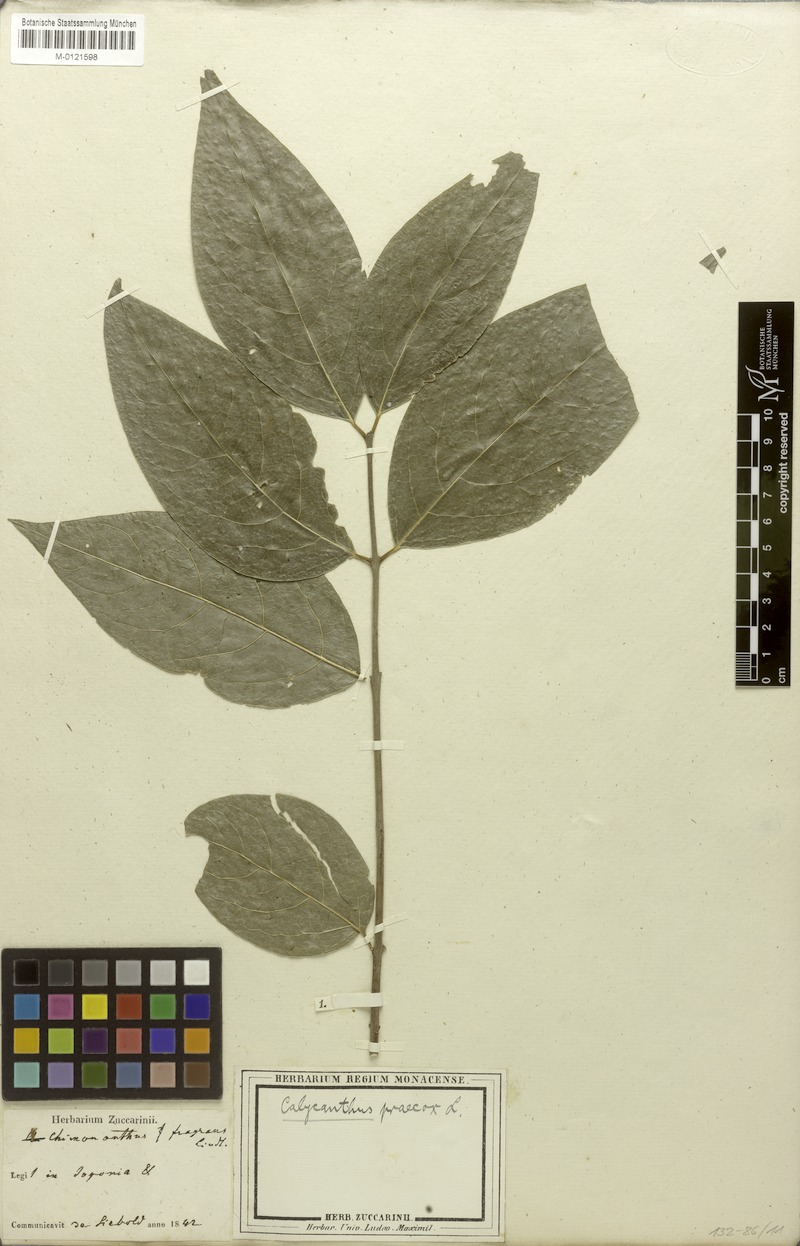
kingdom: Plantae
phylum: Tracheophyta
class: Magnoliopsida
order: Laurales
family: Calycanthaceae
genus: Chimonanthus
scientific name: Chimonanthus praecox
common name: Wintersweet
